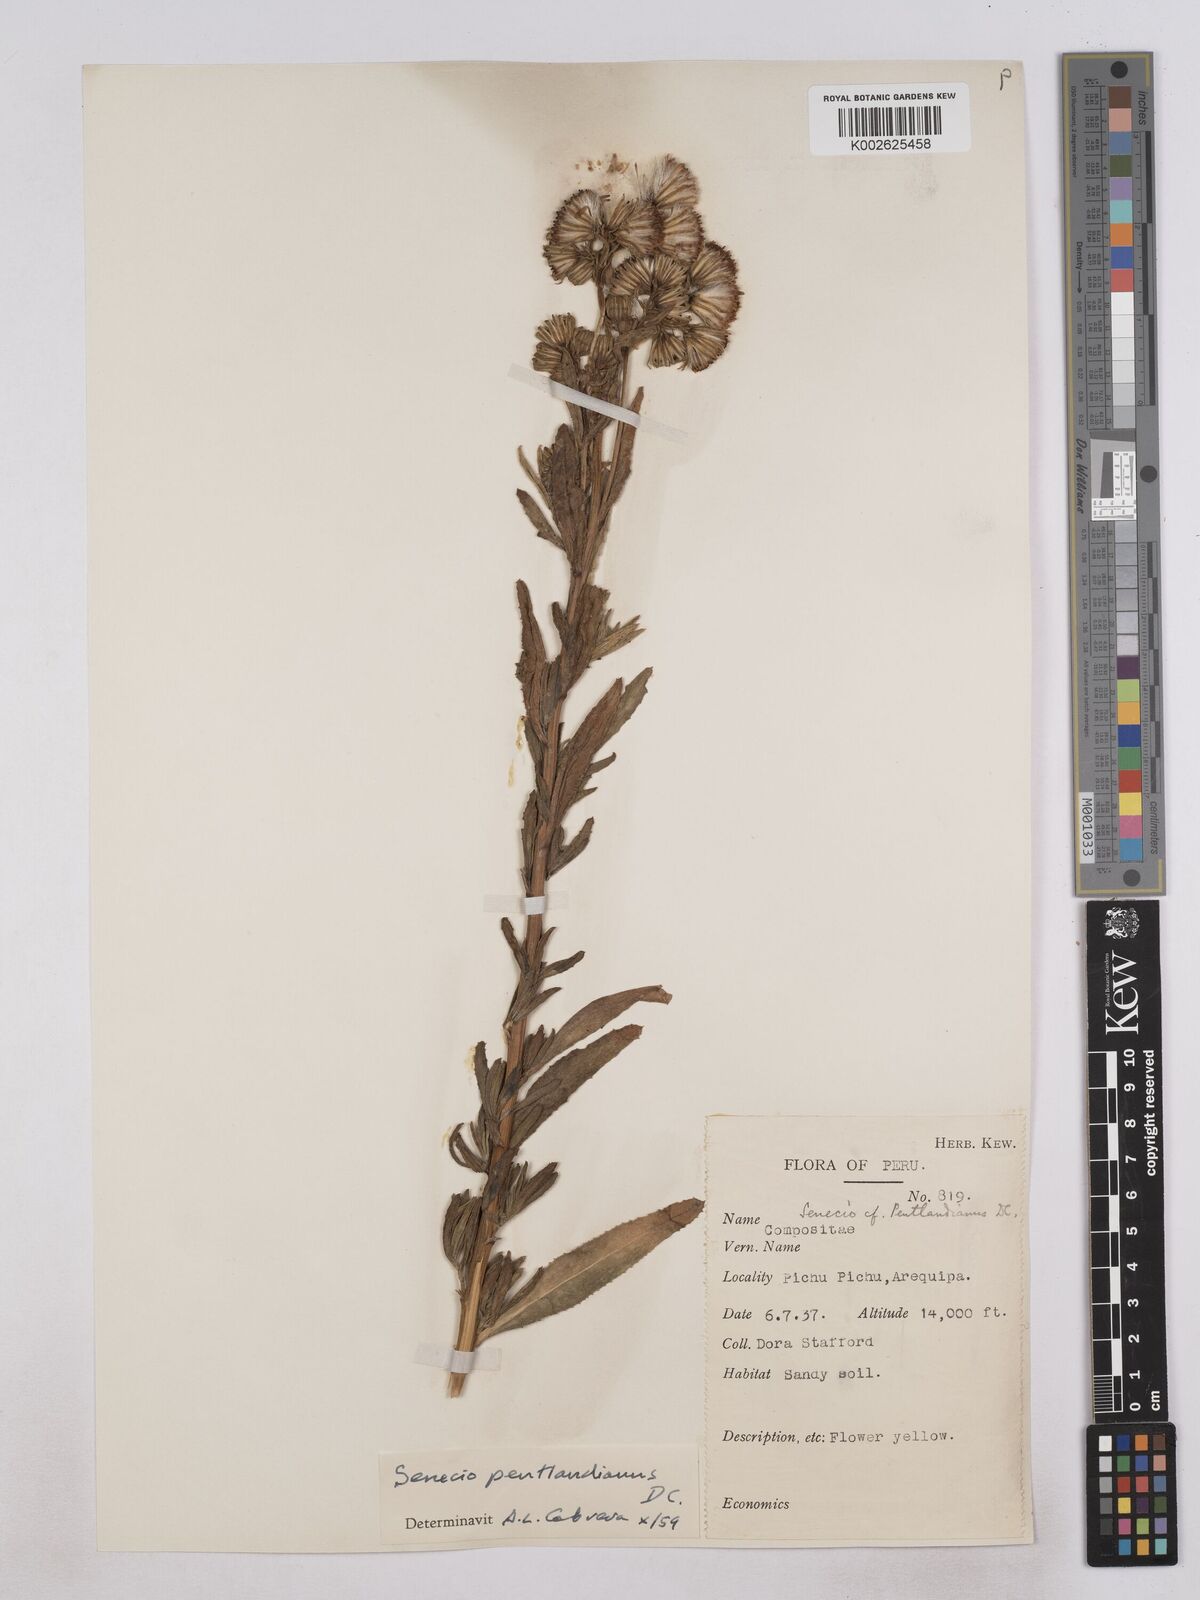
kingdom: Plantae
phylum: Tracheophyta
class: Magnoliopsida
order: Asterales
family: Asteraceae
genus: Senecio
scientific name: Senecio pentlandianus
